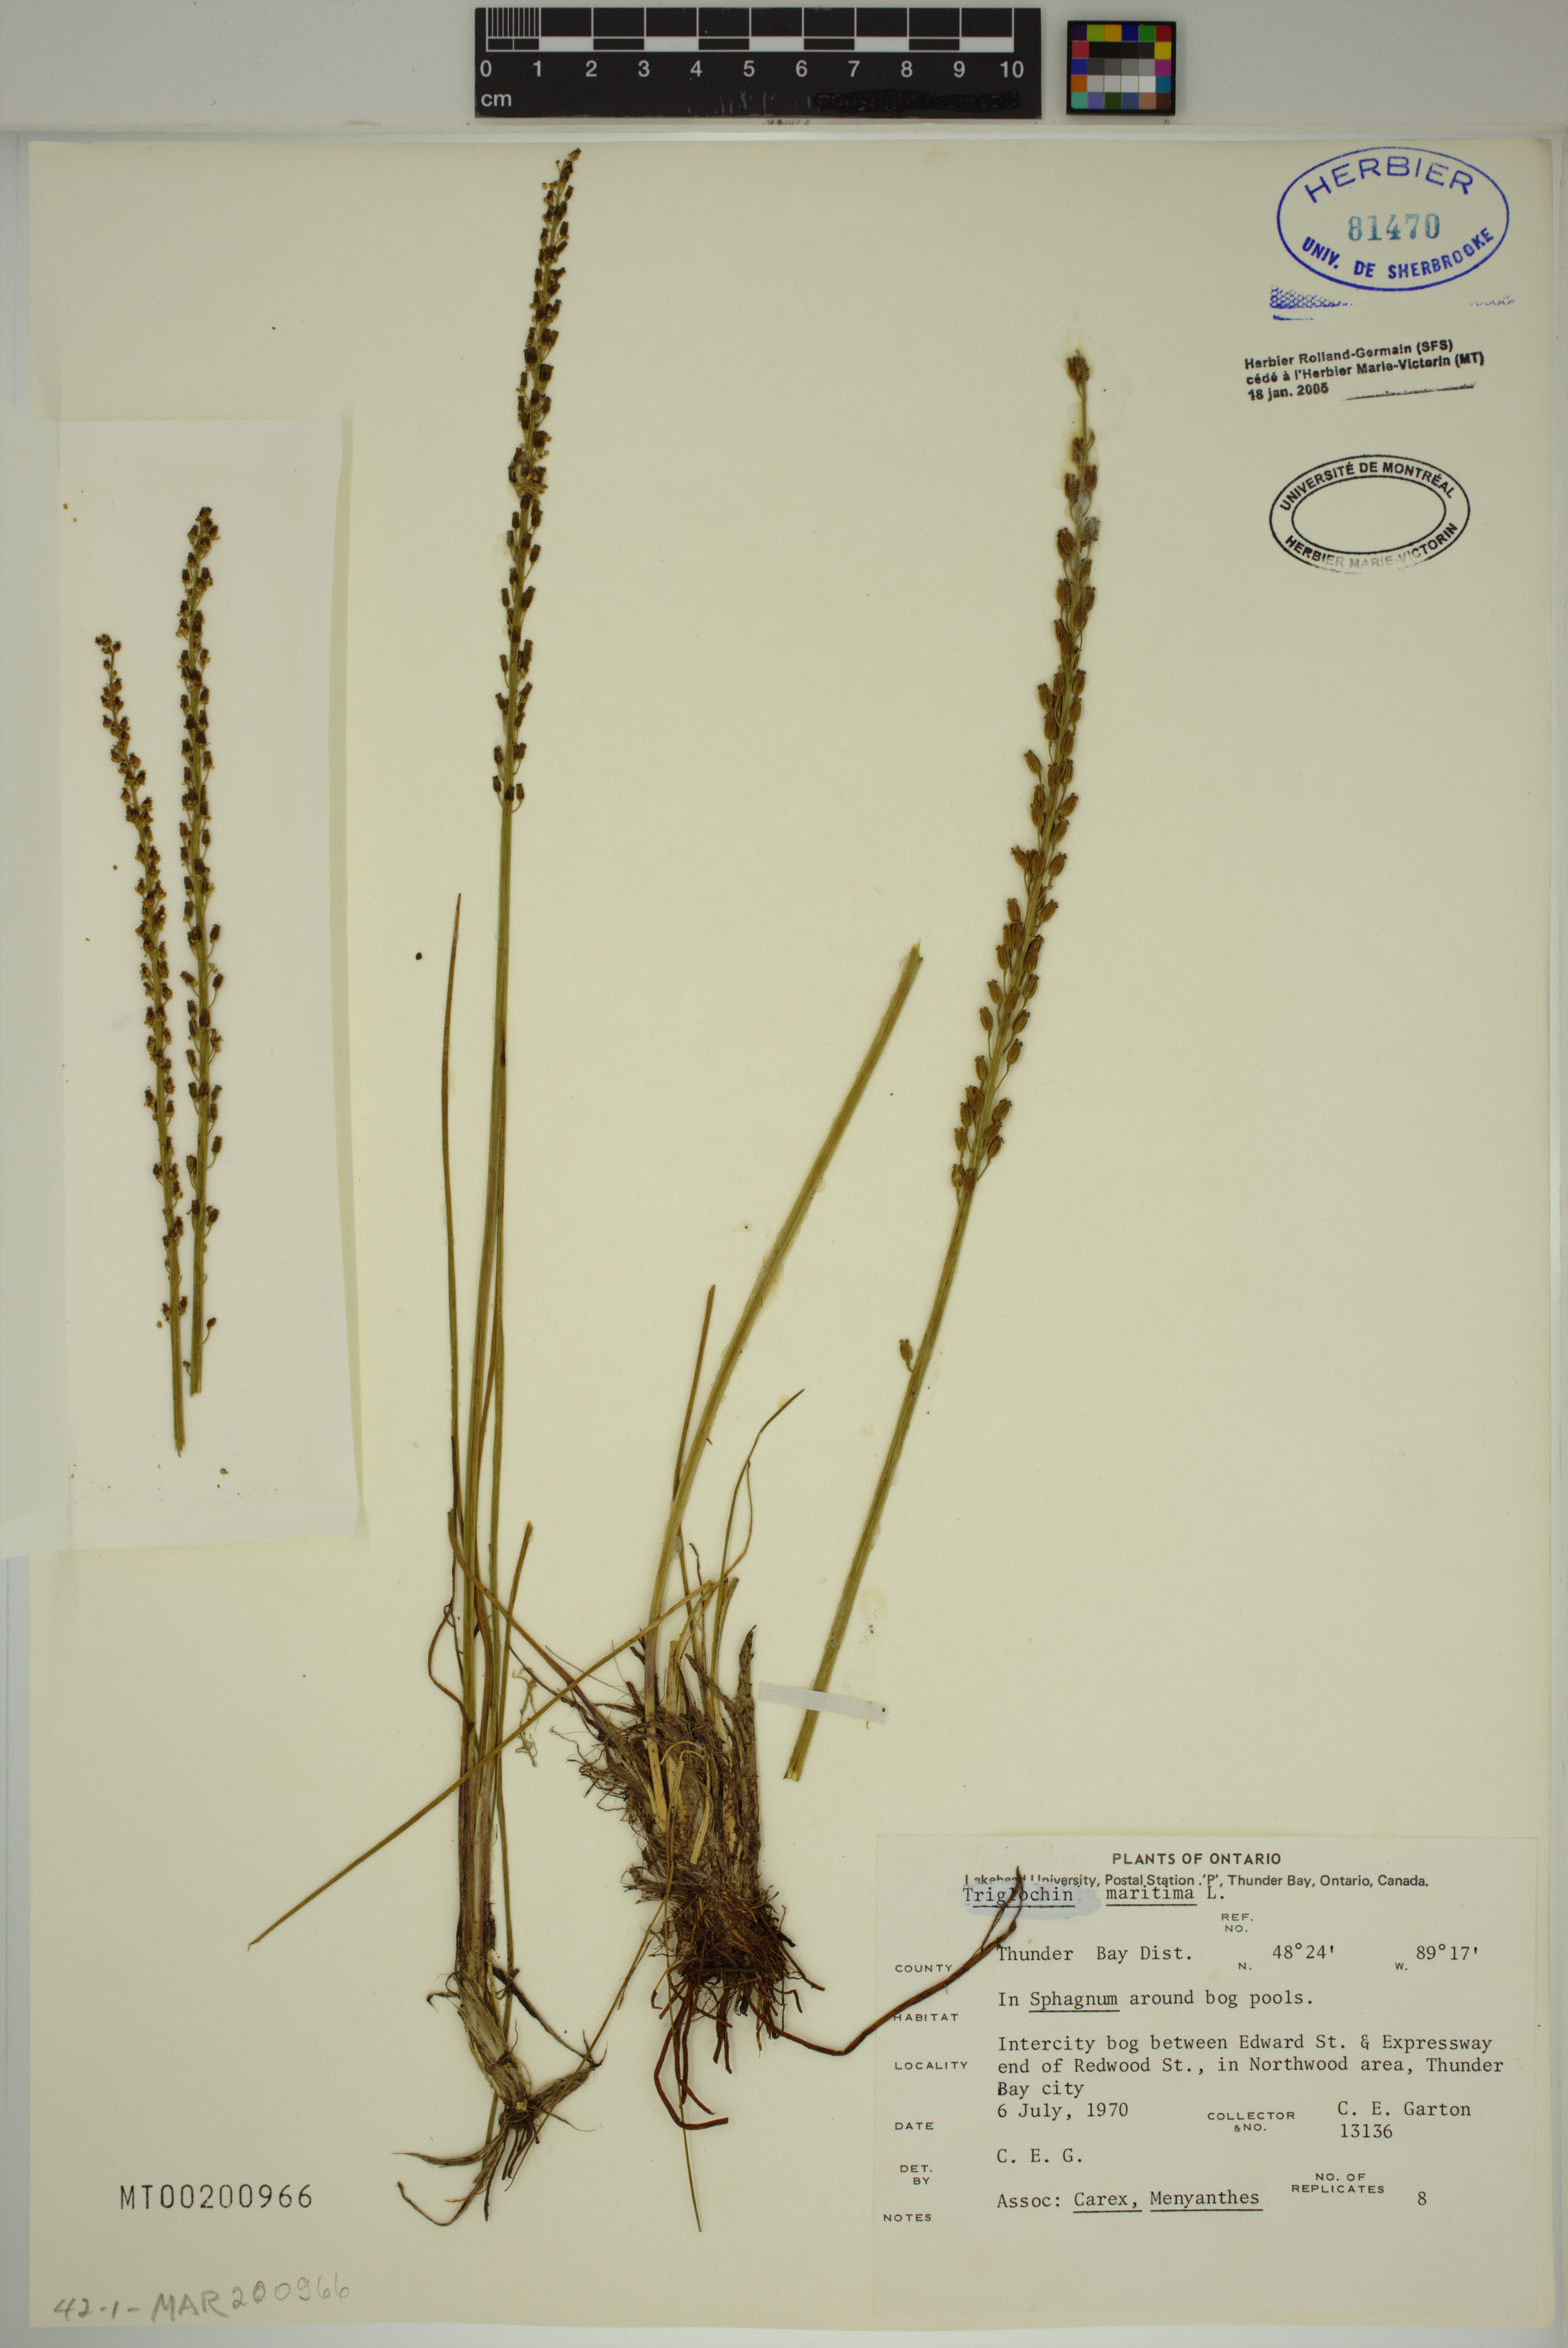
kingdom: Plantae
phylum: Tracheophyta
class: Liliopsida
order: Alismatales
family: Juncaginaceae
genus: Triglochin
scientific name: Triglochin maritima
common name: Sea arrowgrass
